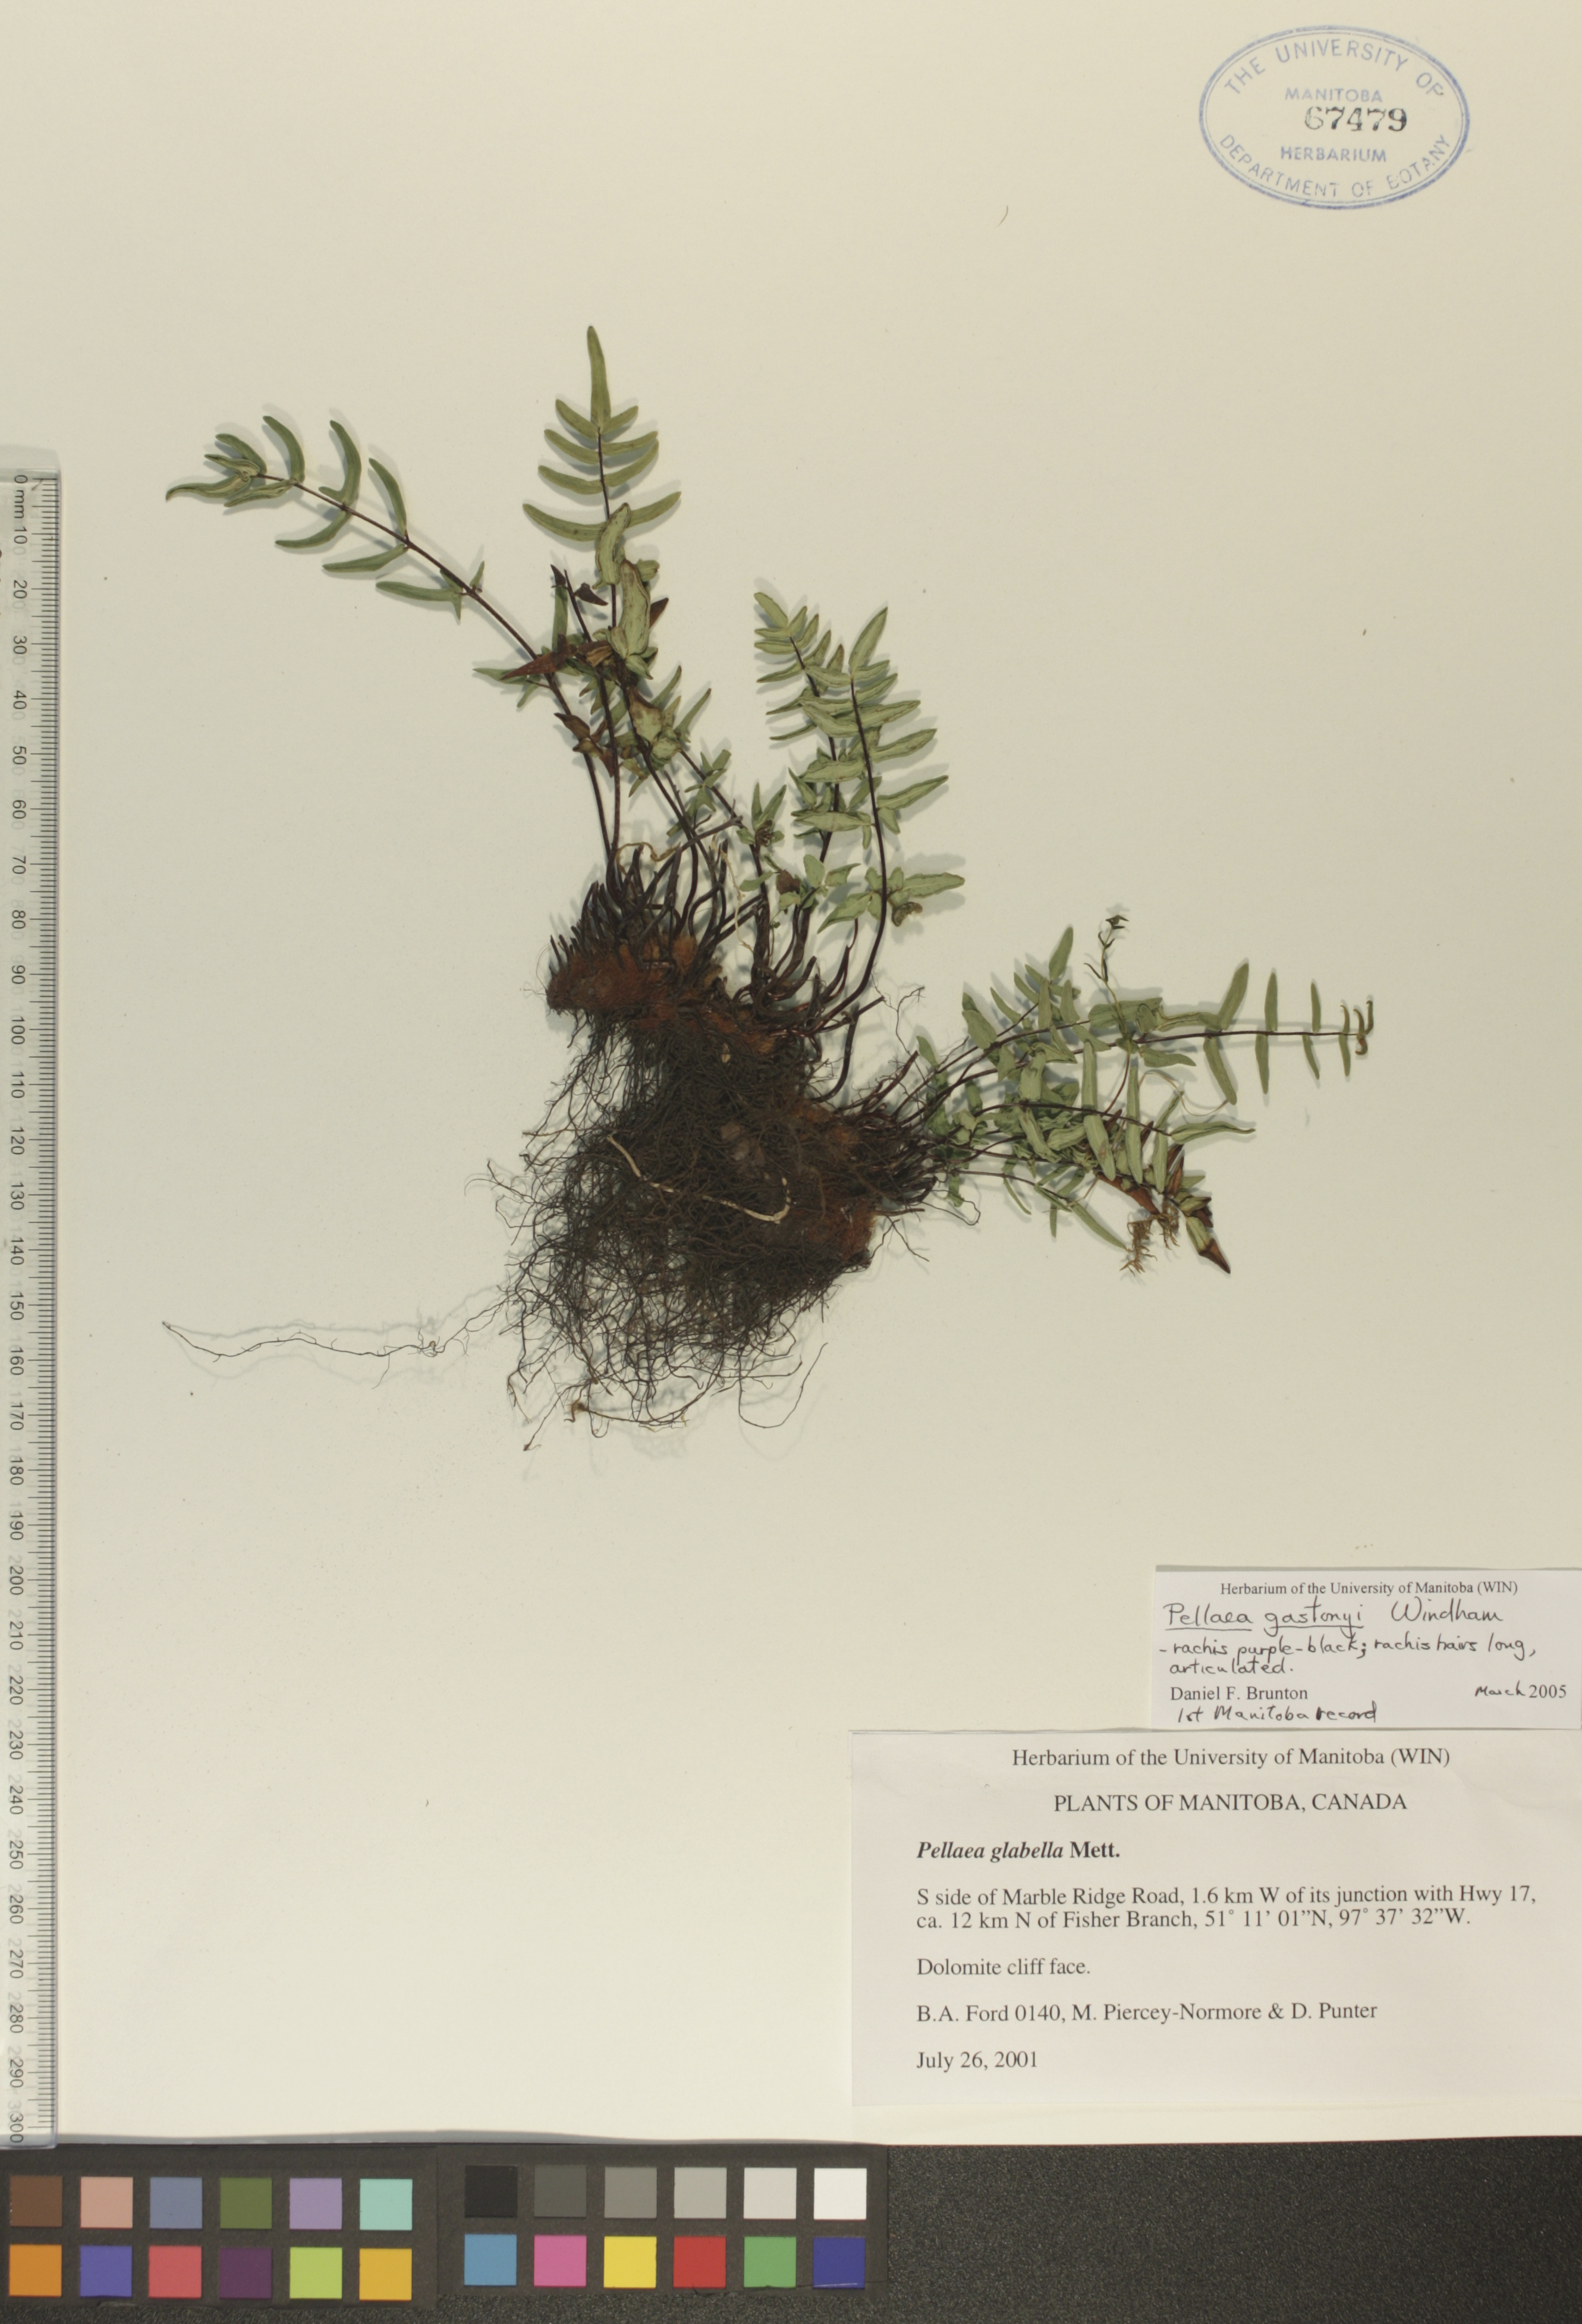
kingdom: Plantae
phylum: Tracheophyta
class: Polypodiopsida
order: Polypodiales
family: Pteridaceae
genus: Pellaea
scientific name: Pellaea gastonyi
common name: Gastony's cliffbrake
